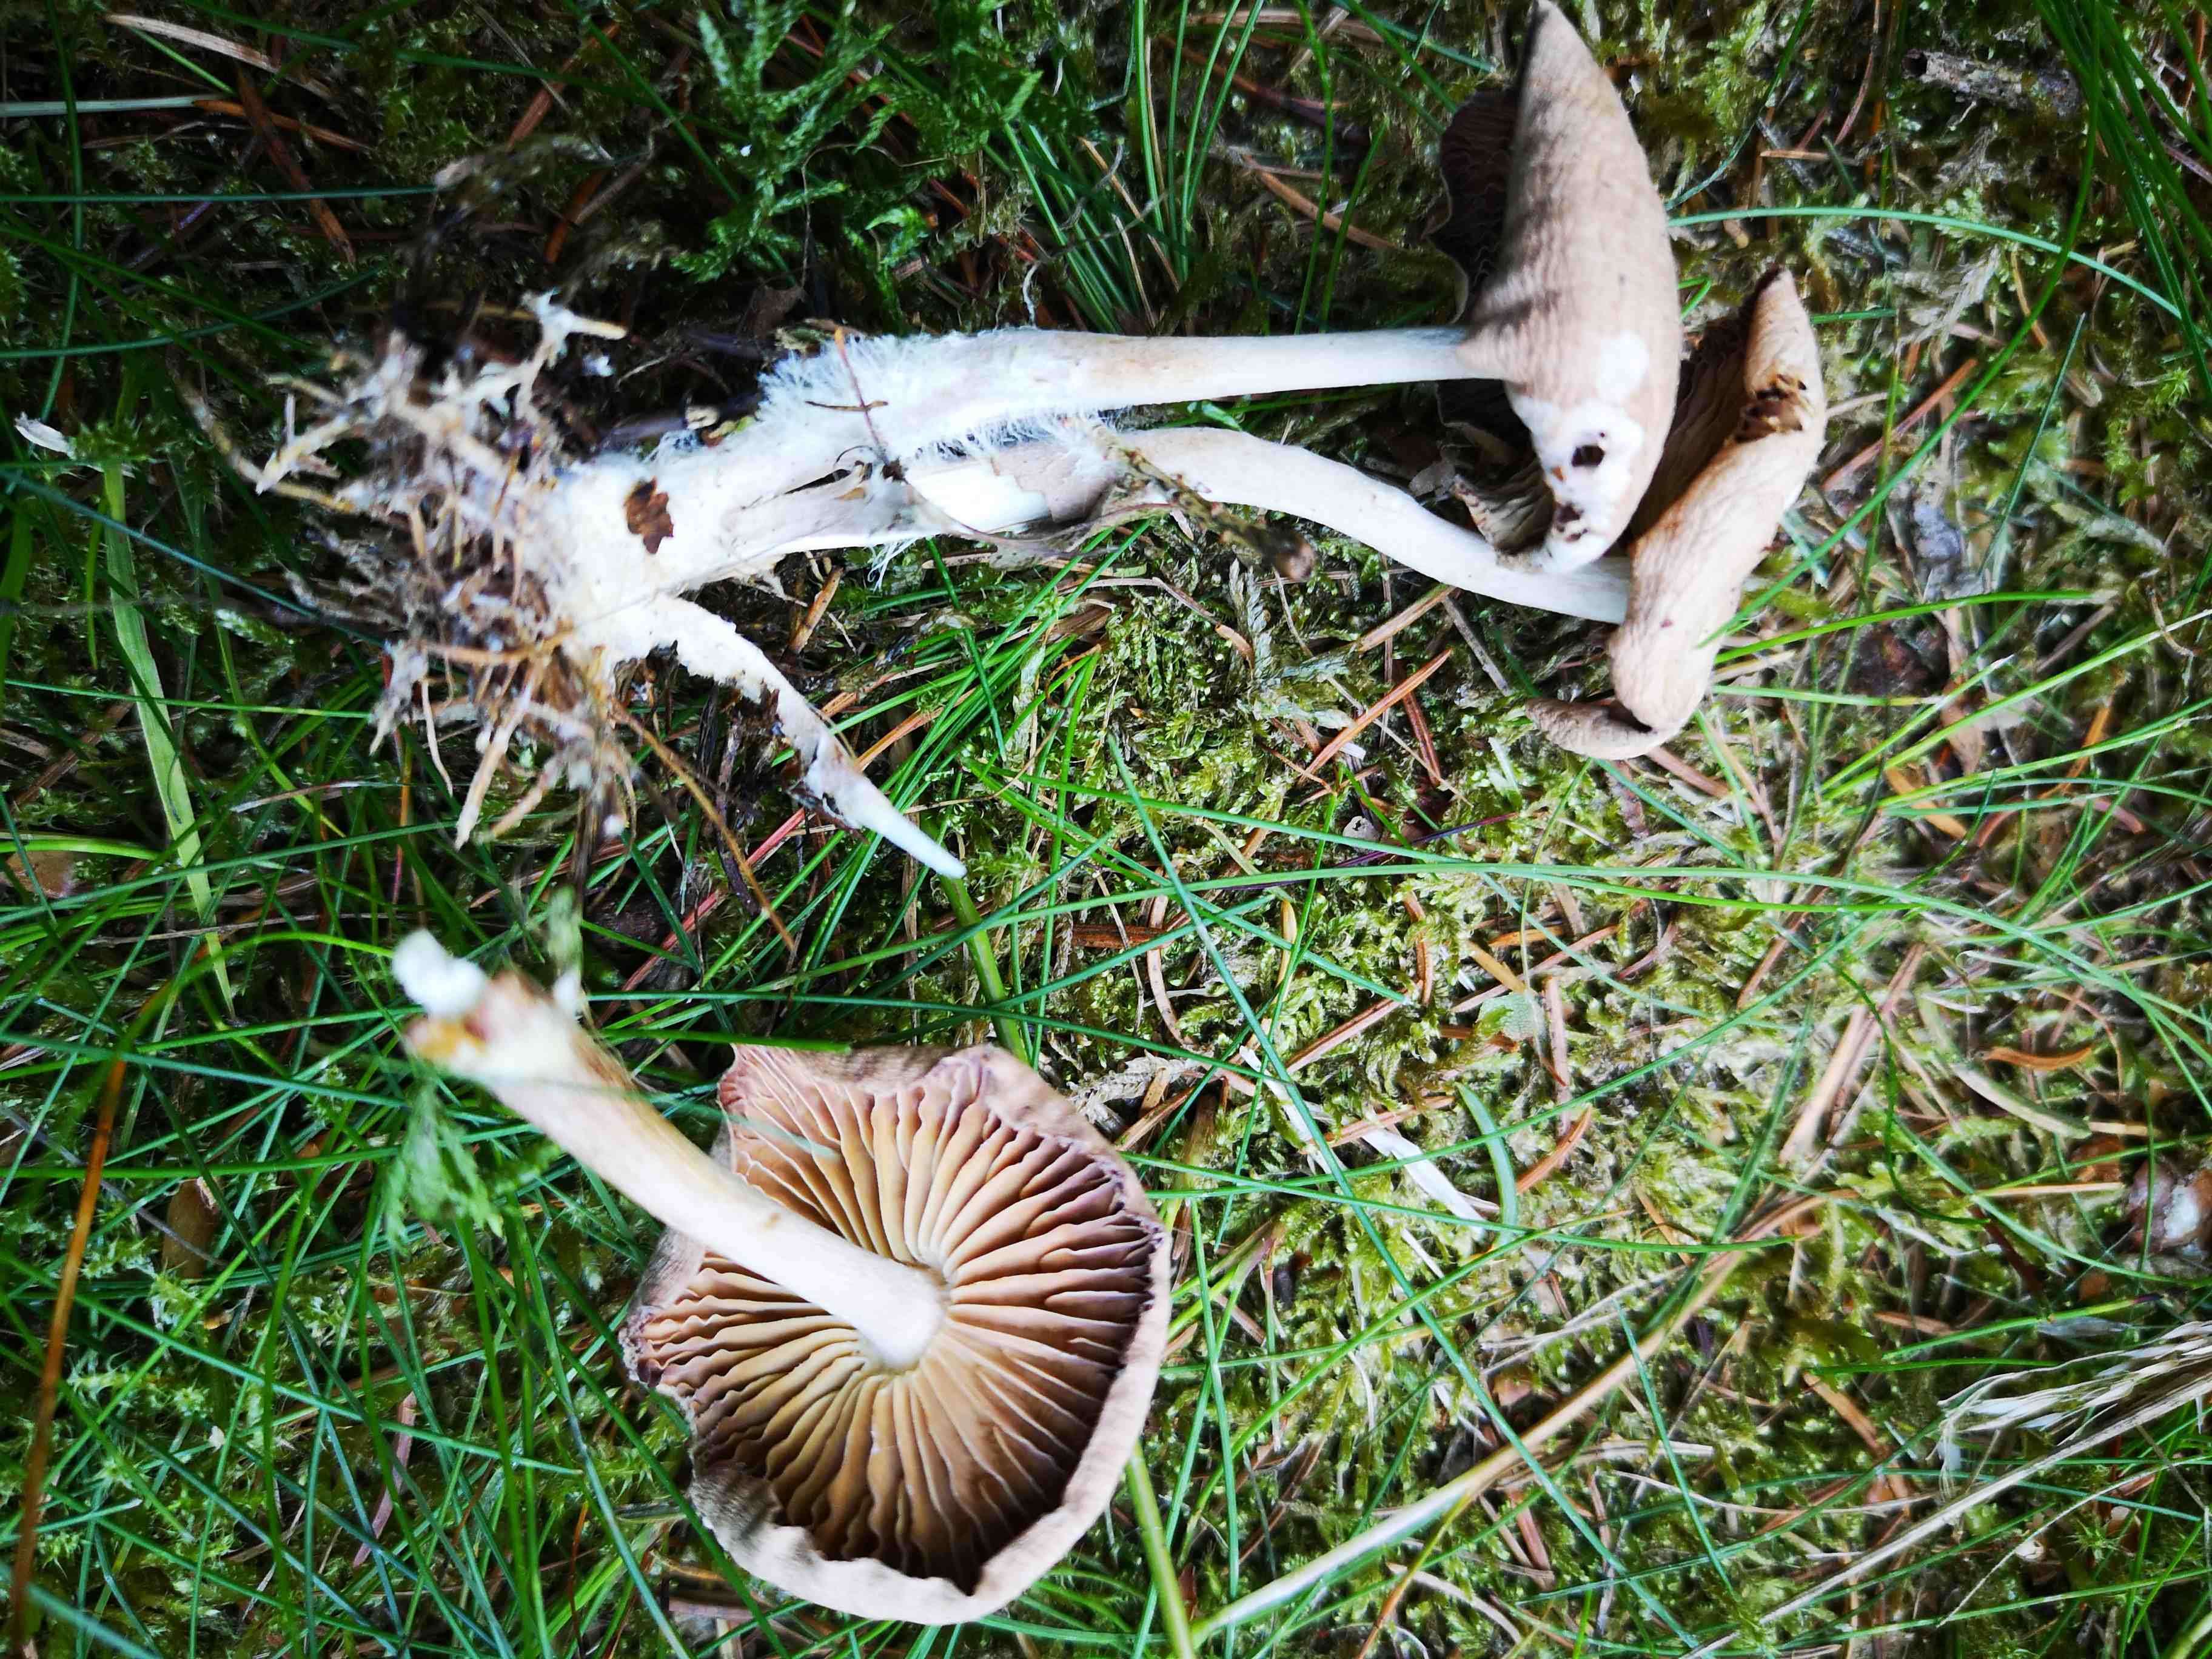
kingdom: Fungi
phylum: Basidiomycota
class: Agaricomycetes
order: Agaricales
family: Omphalotaceae
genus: Collybiopsis
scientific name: Collybiopsis peronata
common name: bestøvlet fladhat
